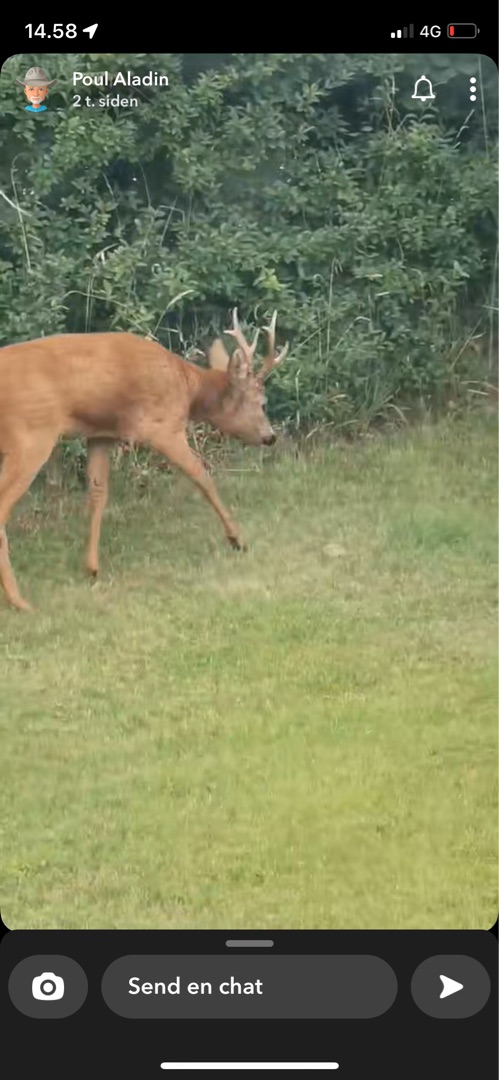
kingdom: Animalia
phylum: Chordata
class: Mammalia
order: Artiodactyla
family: Cervidae
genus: Capreolus
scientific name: Capreolus capreolus
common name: Rådyr
